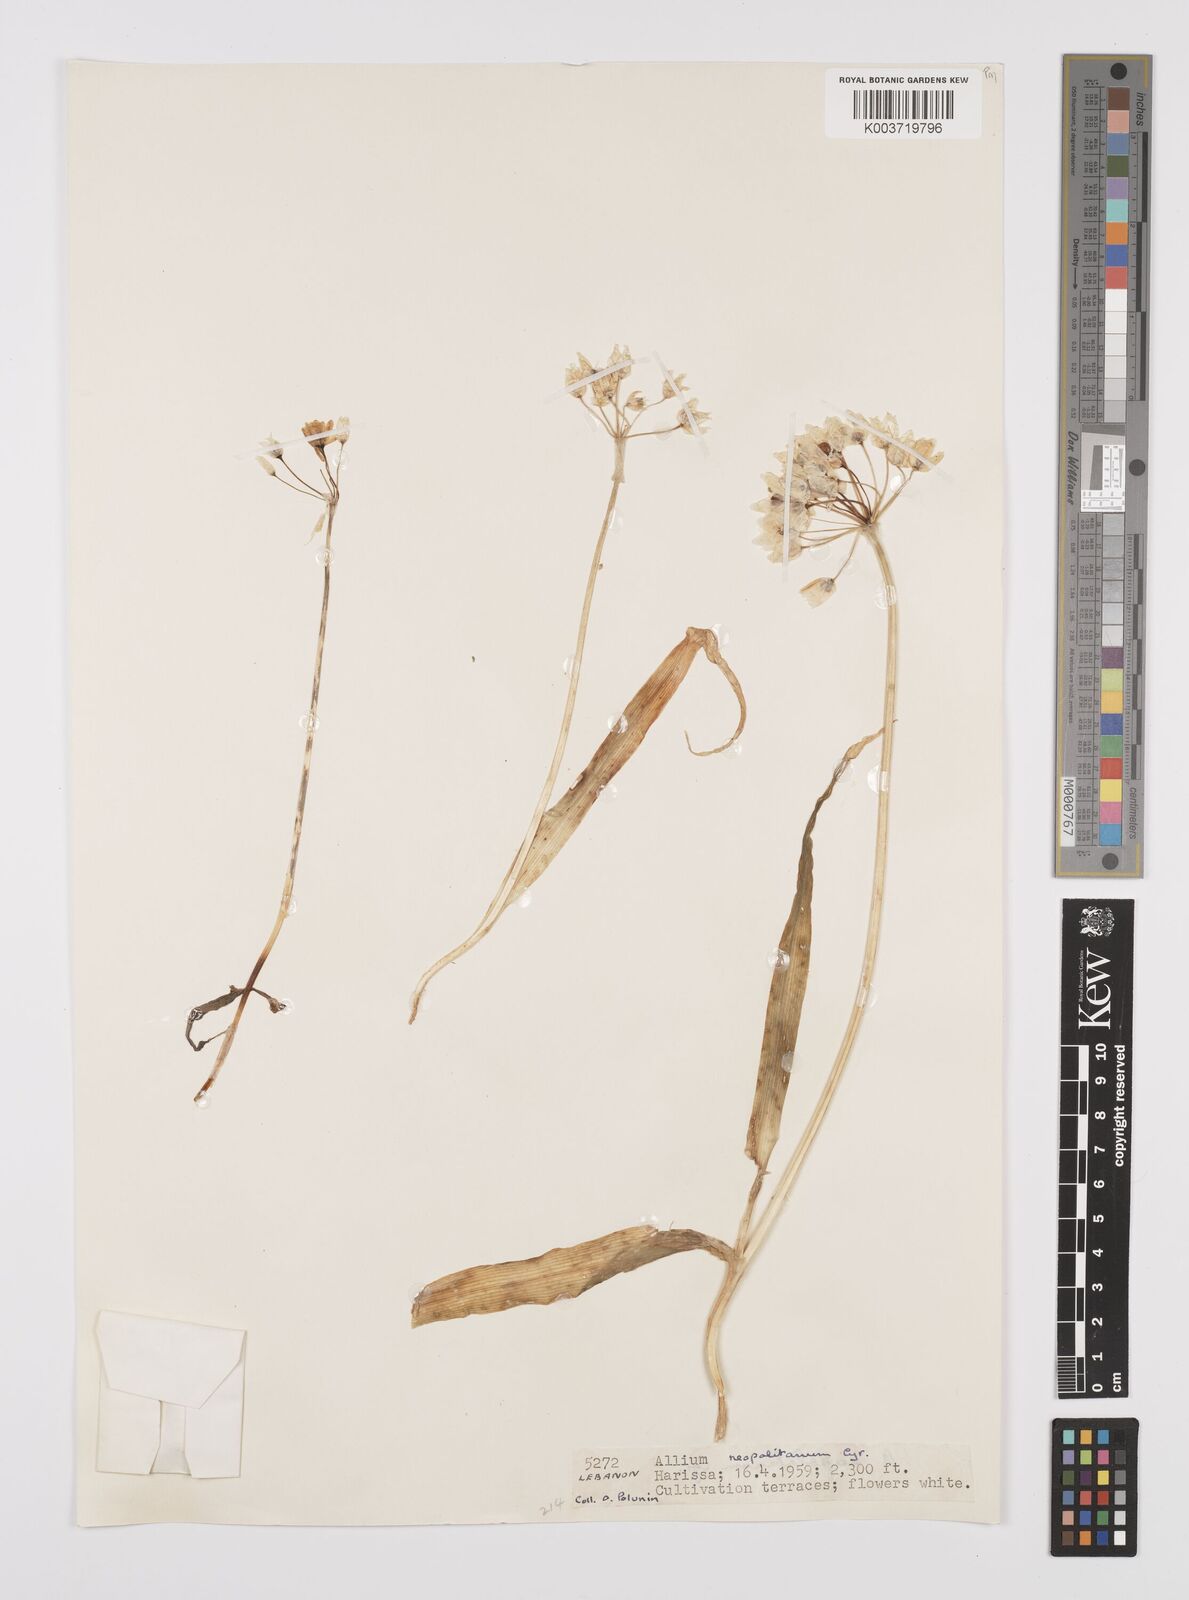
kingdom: Plantae
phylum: Tracheophyta
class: Liliopsida
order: Asparagales
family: Amaryllidaceae
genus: Allium
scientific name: Allium neapolitanum
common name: Neapolitan garlic
